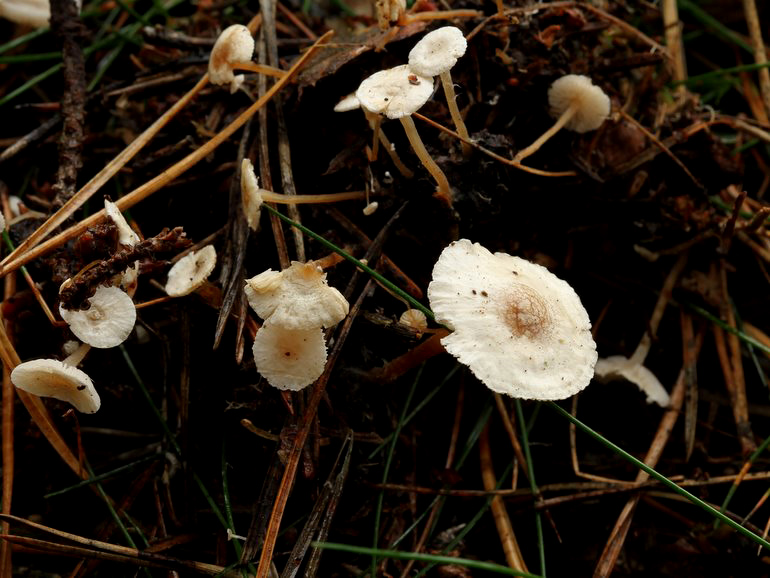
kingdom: Fungi
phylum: Basidiomycota
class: Agaricomycetes
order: Agaricales
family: Tricholomataceae
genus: Collybia
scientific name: Collybia cirrhata
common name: silke-lighat
